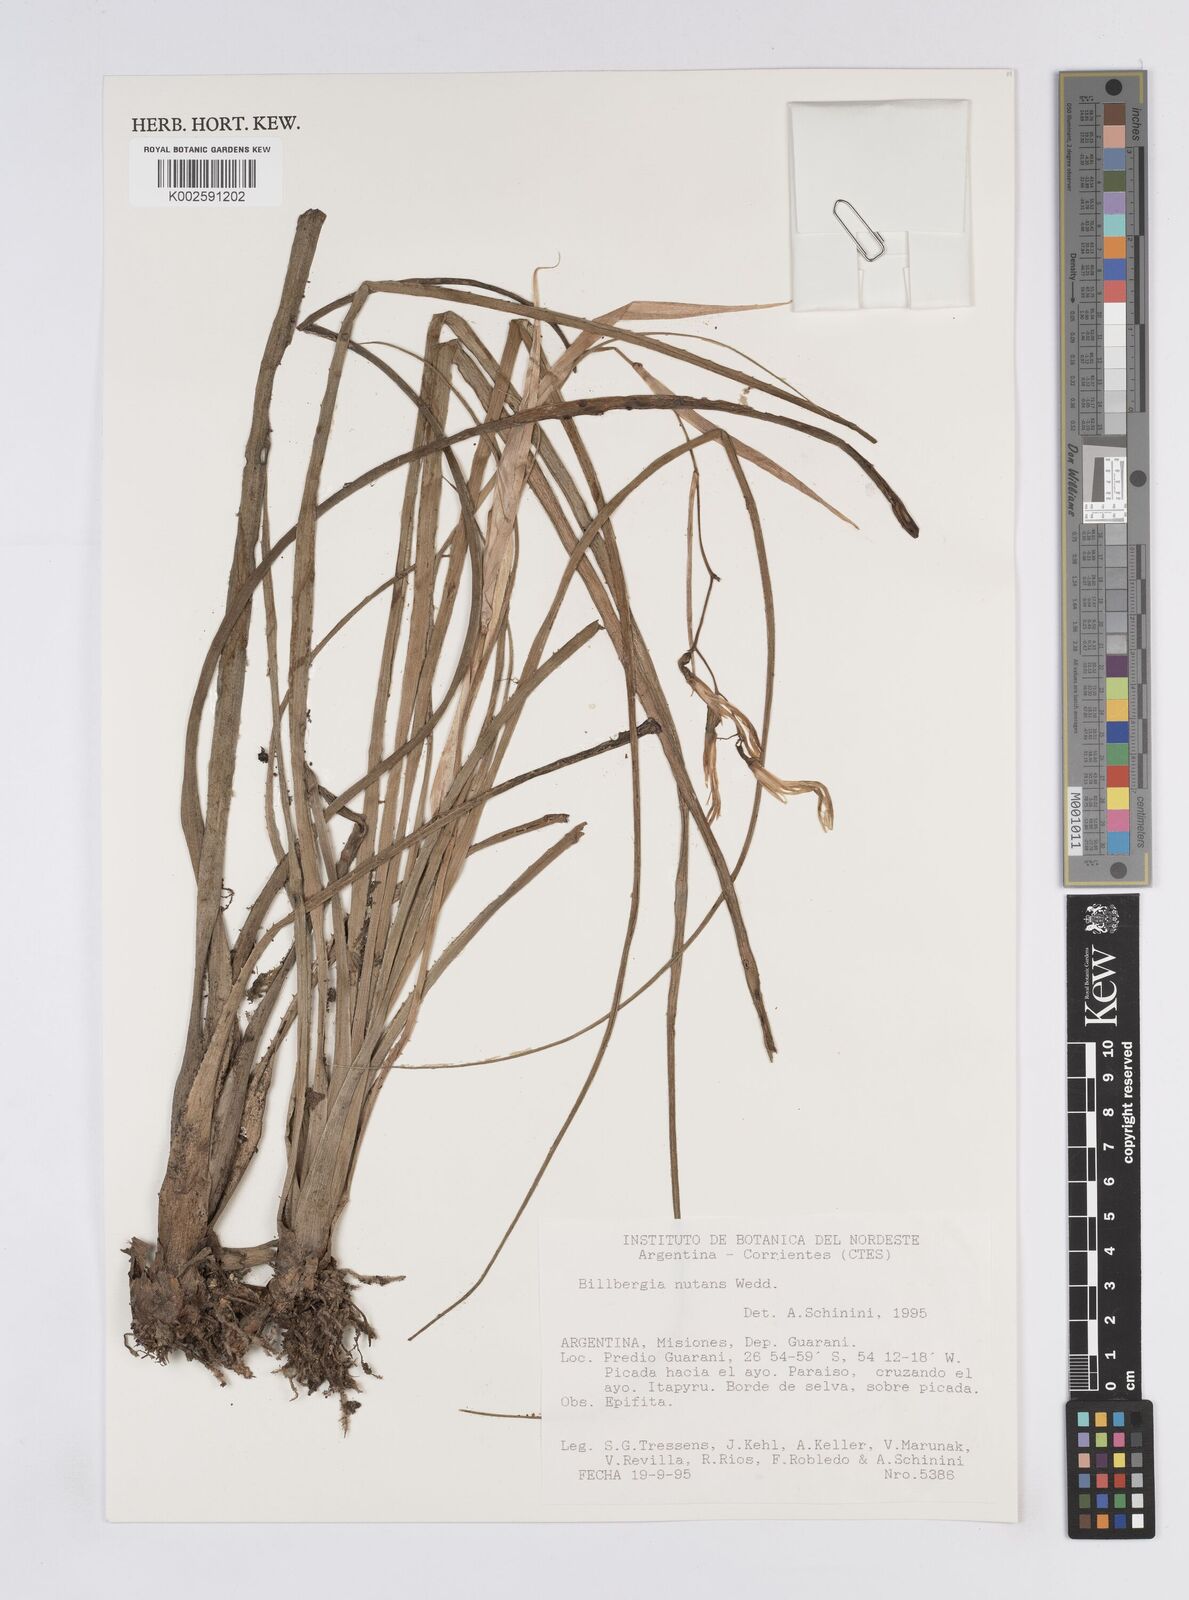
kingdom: Plantae
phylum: Tracheophyta
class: Liliopsida
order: Poales
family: Bromeliaceae
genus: Billbergia
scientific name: Billbergia nutans
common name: Friendship-plant
